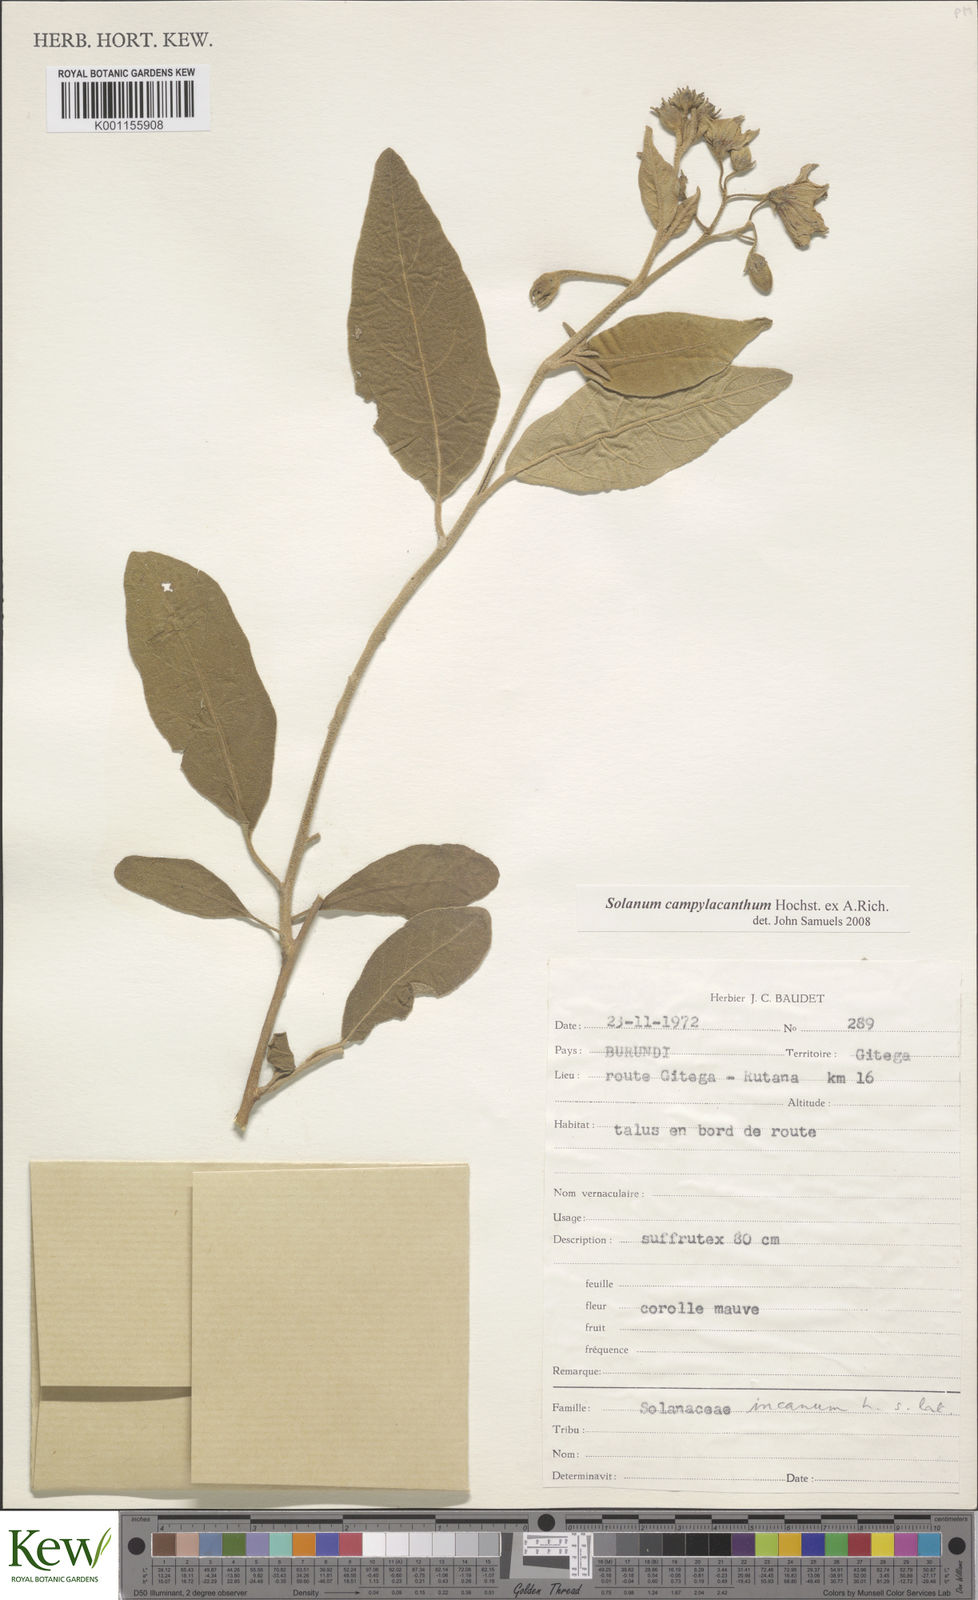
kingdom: Plantae
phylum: Tracheophyta
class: Magnoliopsida
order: Solanales
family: Solanaceae
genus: Solanum
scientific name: Solanum campylacanthum
